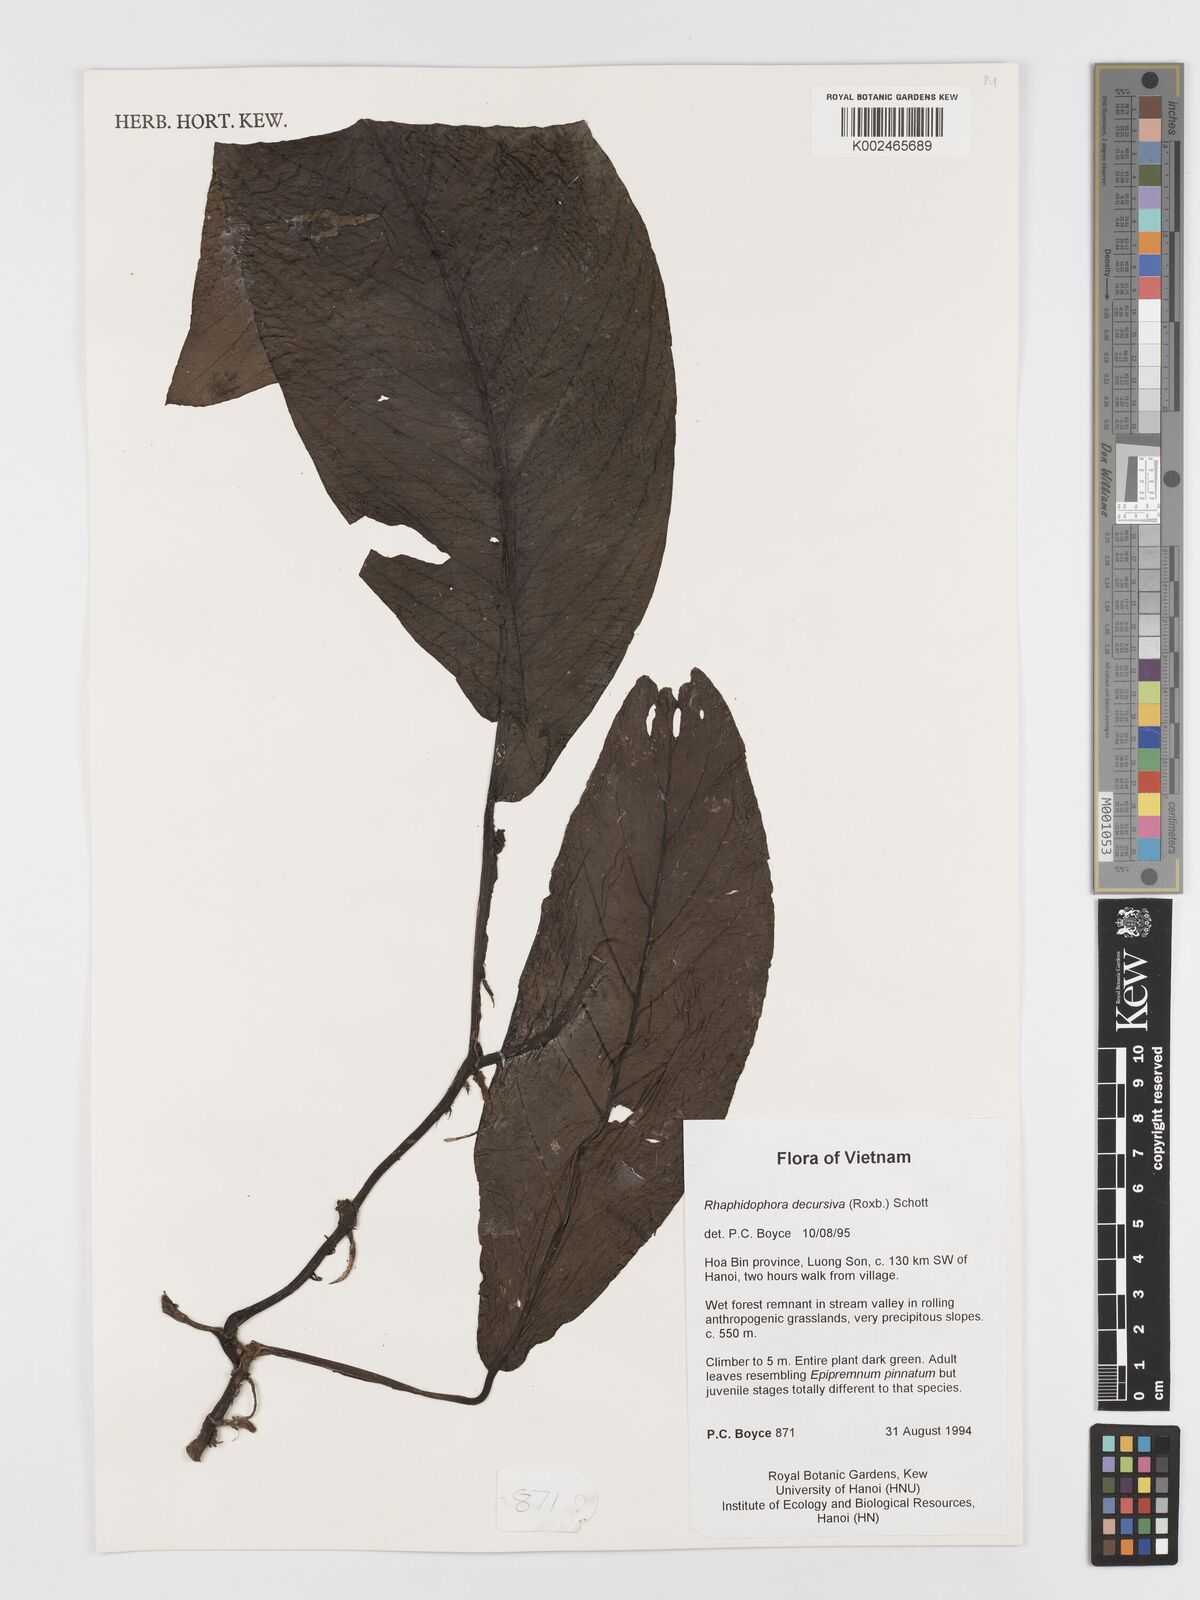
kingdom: Plantae
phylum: Tracheophyta
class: Liliopsida
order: Alismatales
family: Araceae
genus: Rhaphidophora
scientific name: Rhaphidophora crassicaulis
